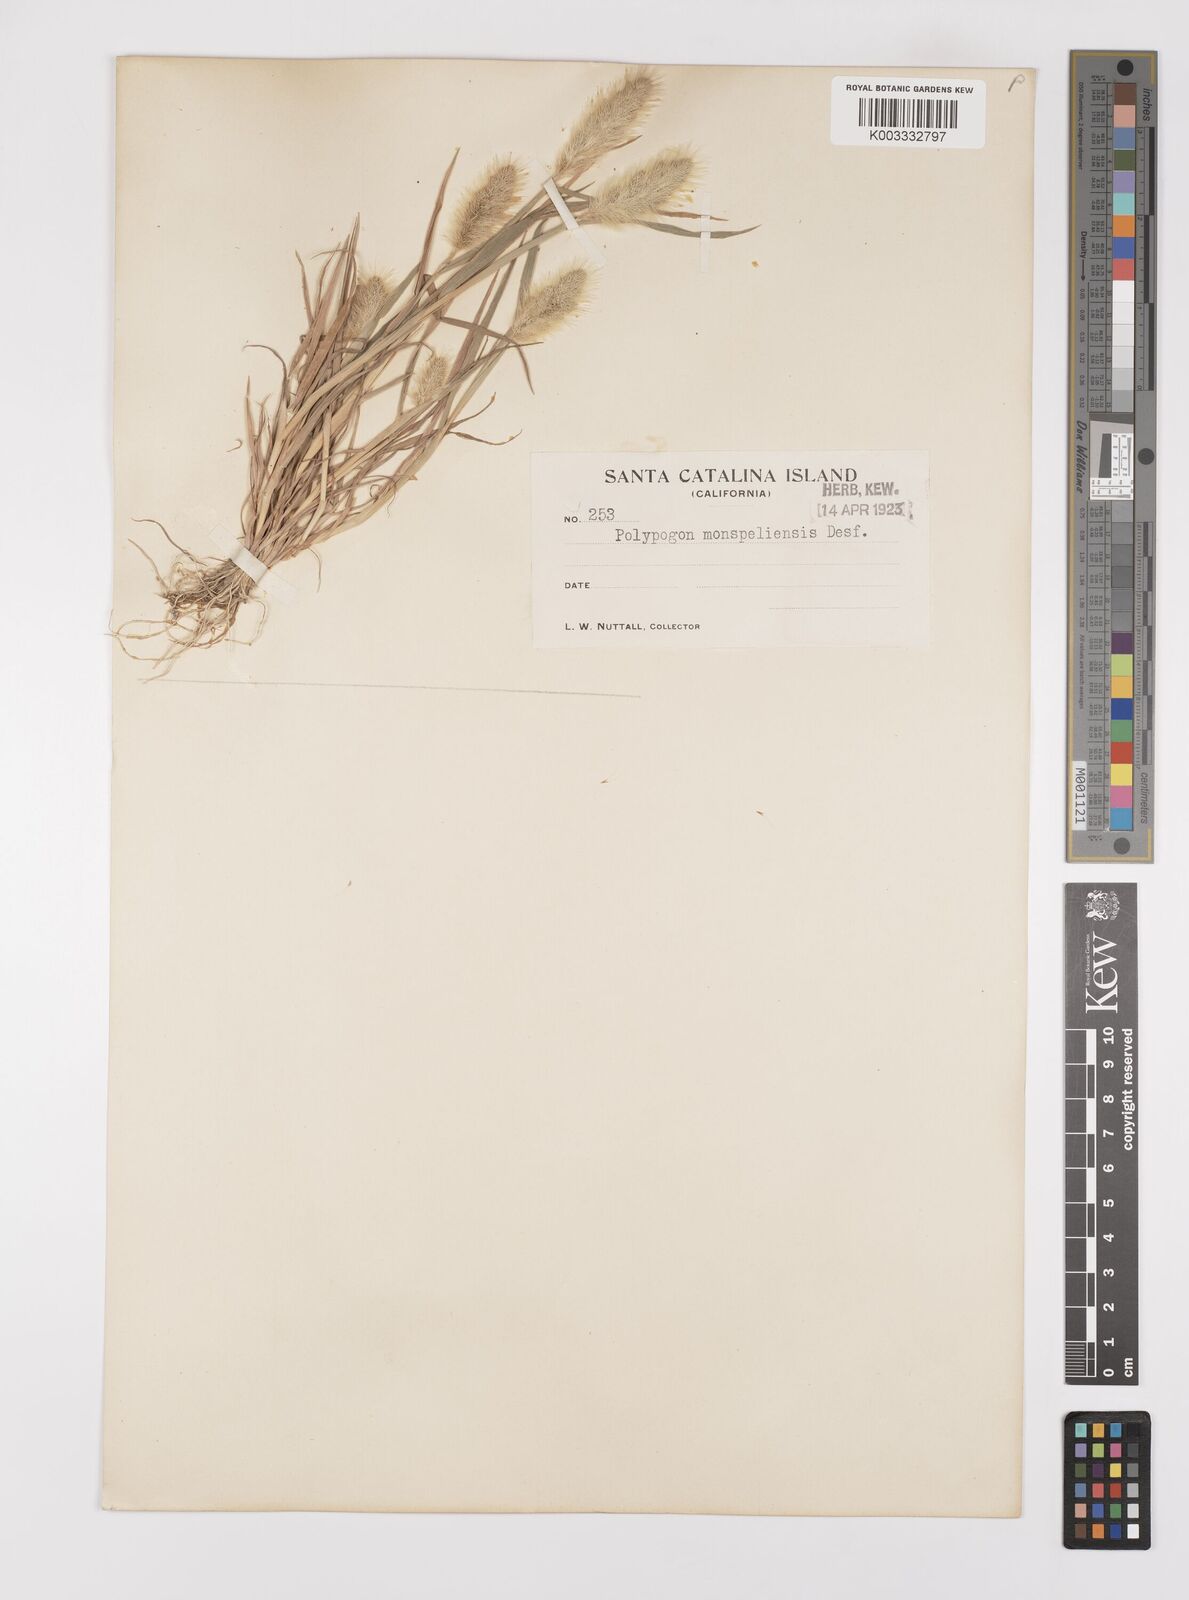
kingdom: Plantae
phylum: Tracheophyta
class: Liliopsida
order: Poales
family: Poaceae
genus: Polypogon
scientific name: Polypogon monspeliensis
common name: Annual rabbitsfoot grass
